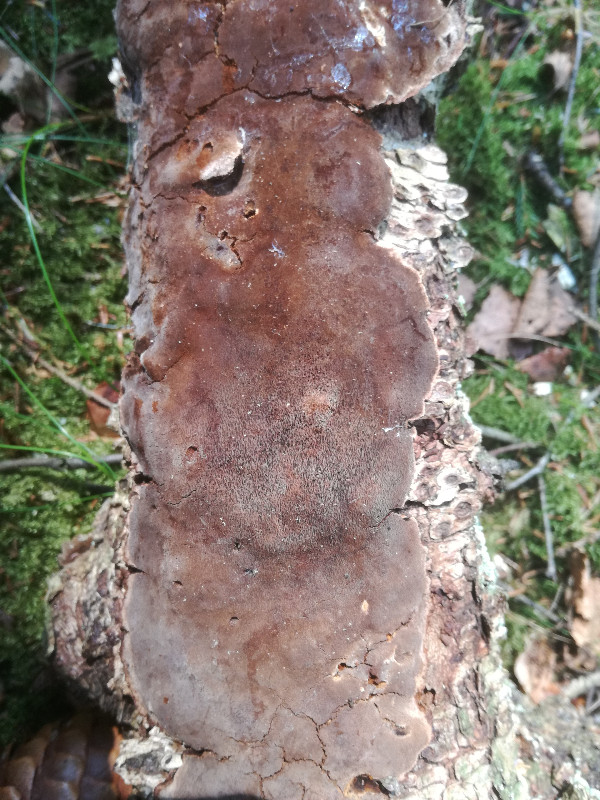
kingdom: Fungi
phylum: Basidiomycota
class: Agaricomycetes
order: Hymenochaetales
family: Hymenochaetaceae
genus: Phellinus
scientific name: Phellinus laevigatus
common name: glat ildporesvamp
